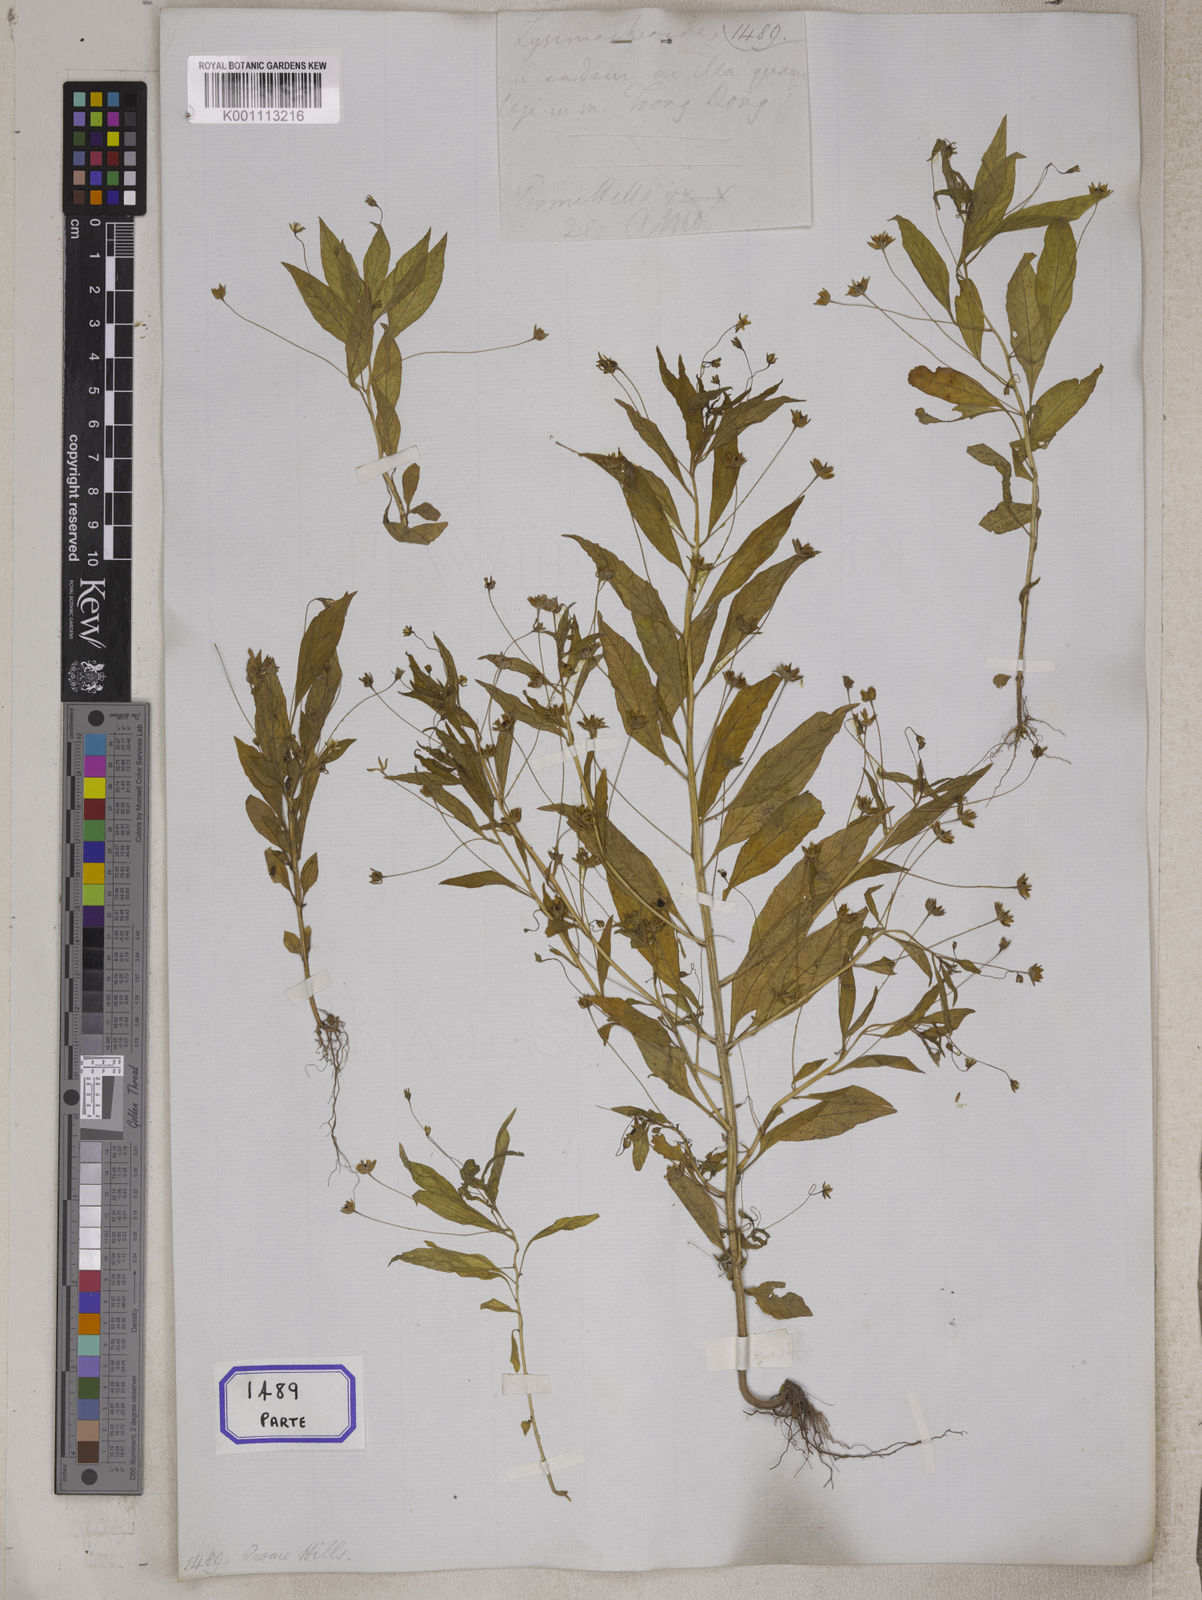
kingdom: Plantae
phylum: Tracheophyta
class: Magnoliopsida
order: Ericales
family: Primulaceae
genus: Lysimachia
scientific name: Lysimachia
